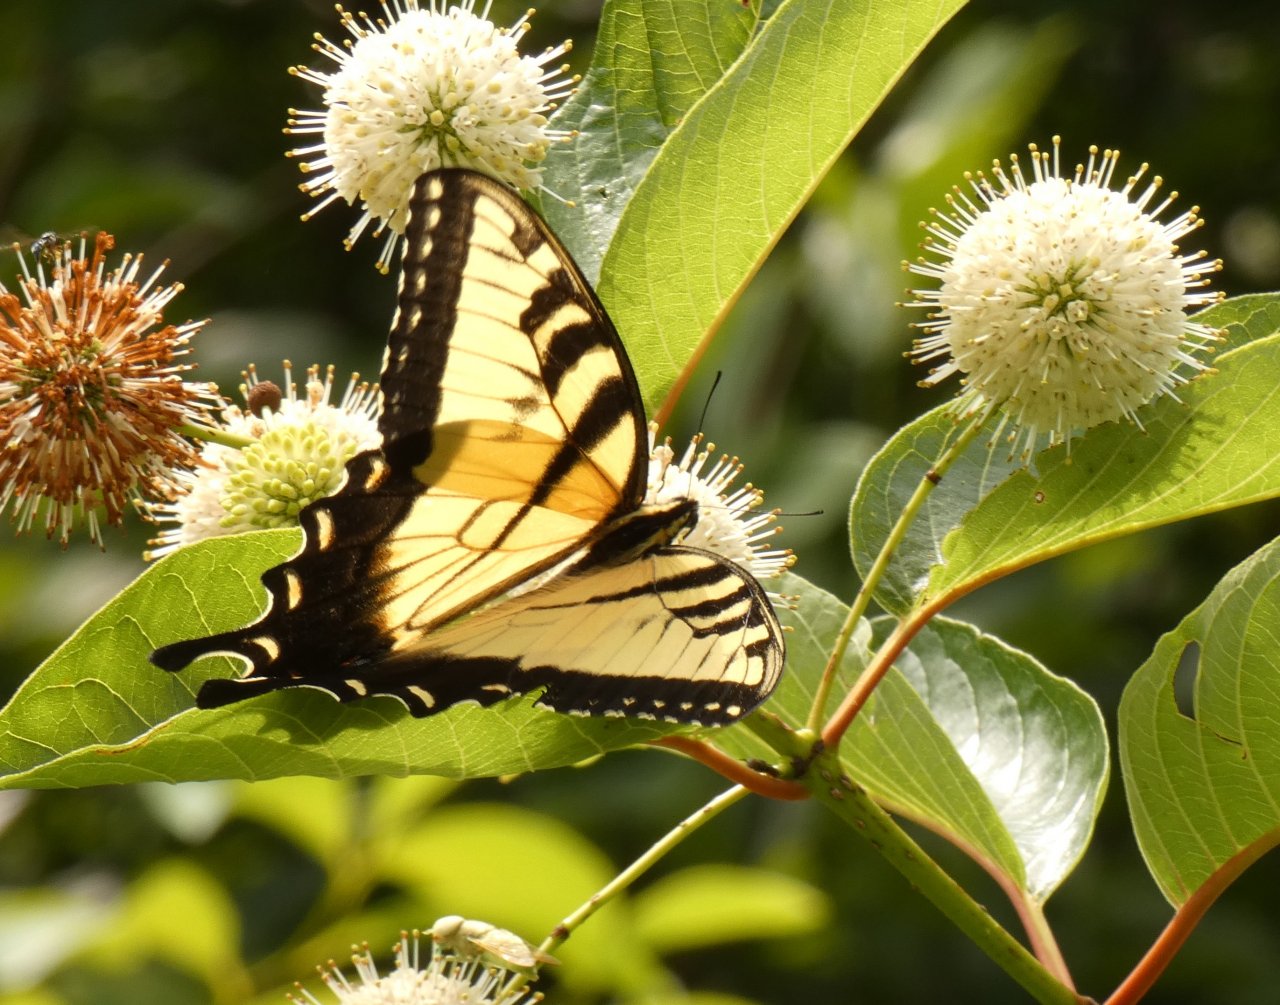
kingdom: Animalia
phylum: Arthropoda
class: Insecta
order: Lepidoptera
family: Papilionidae
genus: Pterourus
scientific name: Pterourus glaucus
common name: Eastern Tiger Swallowtail
